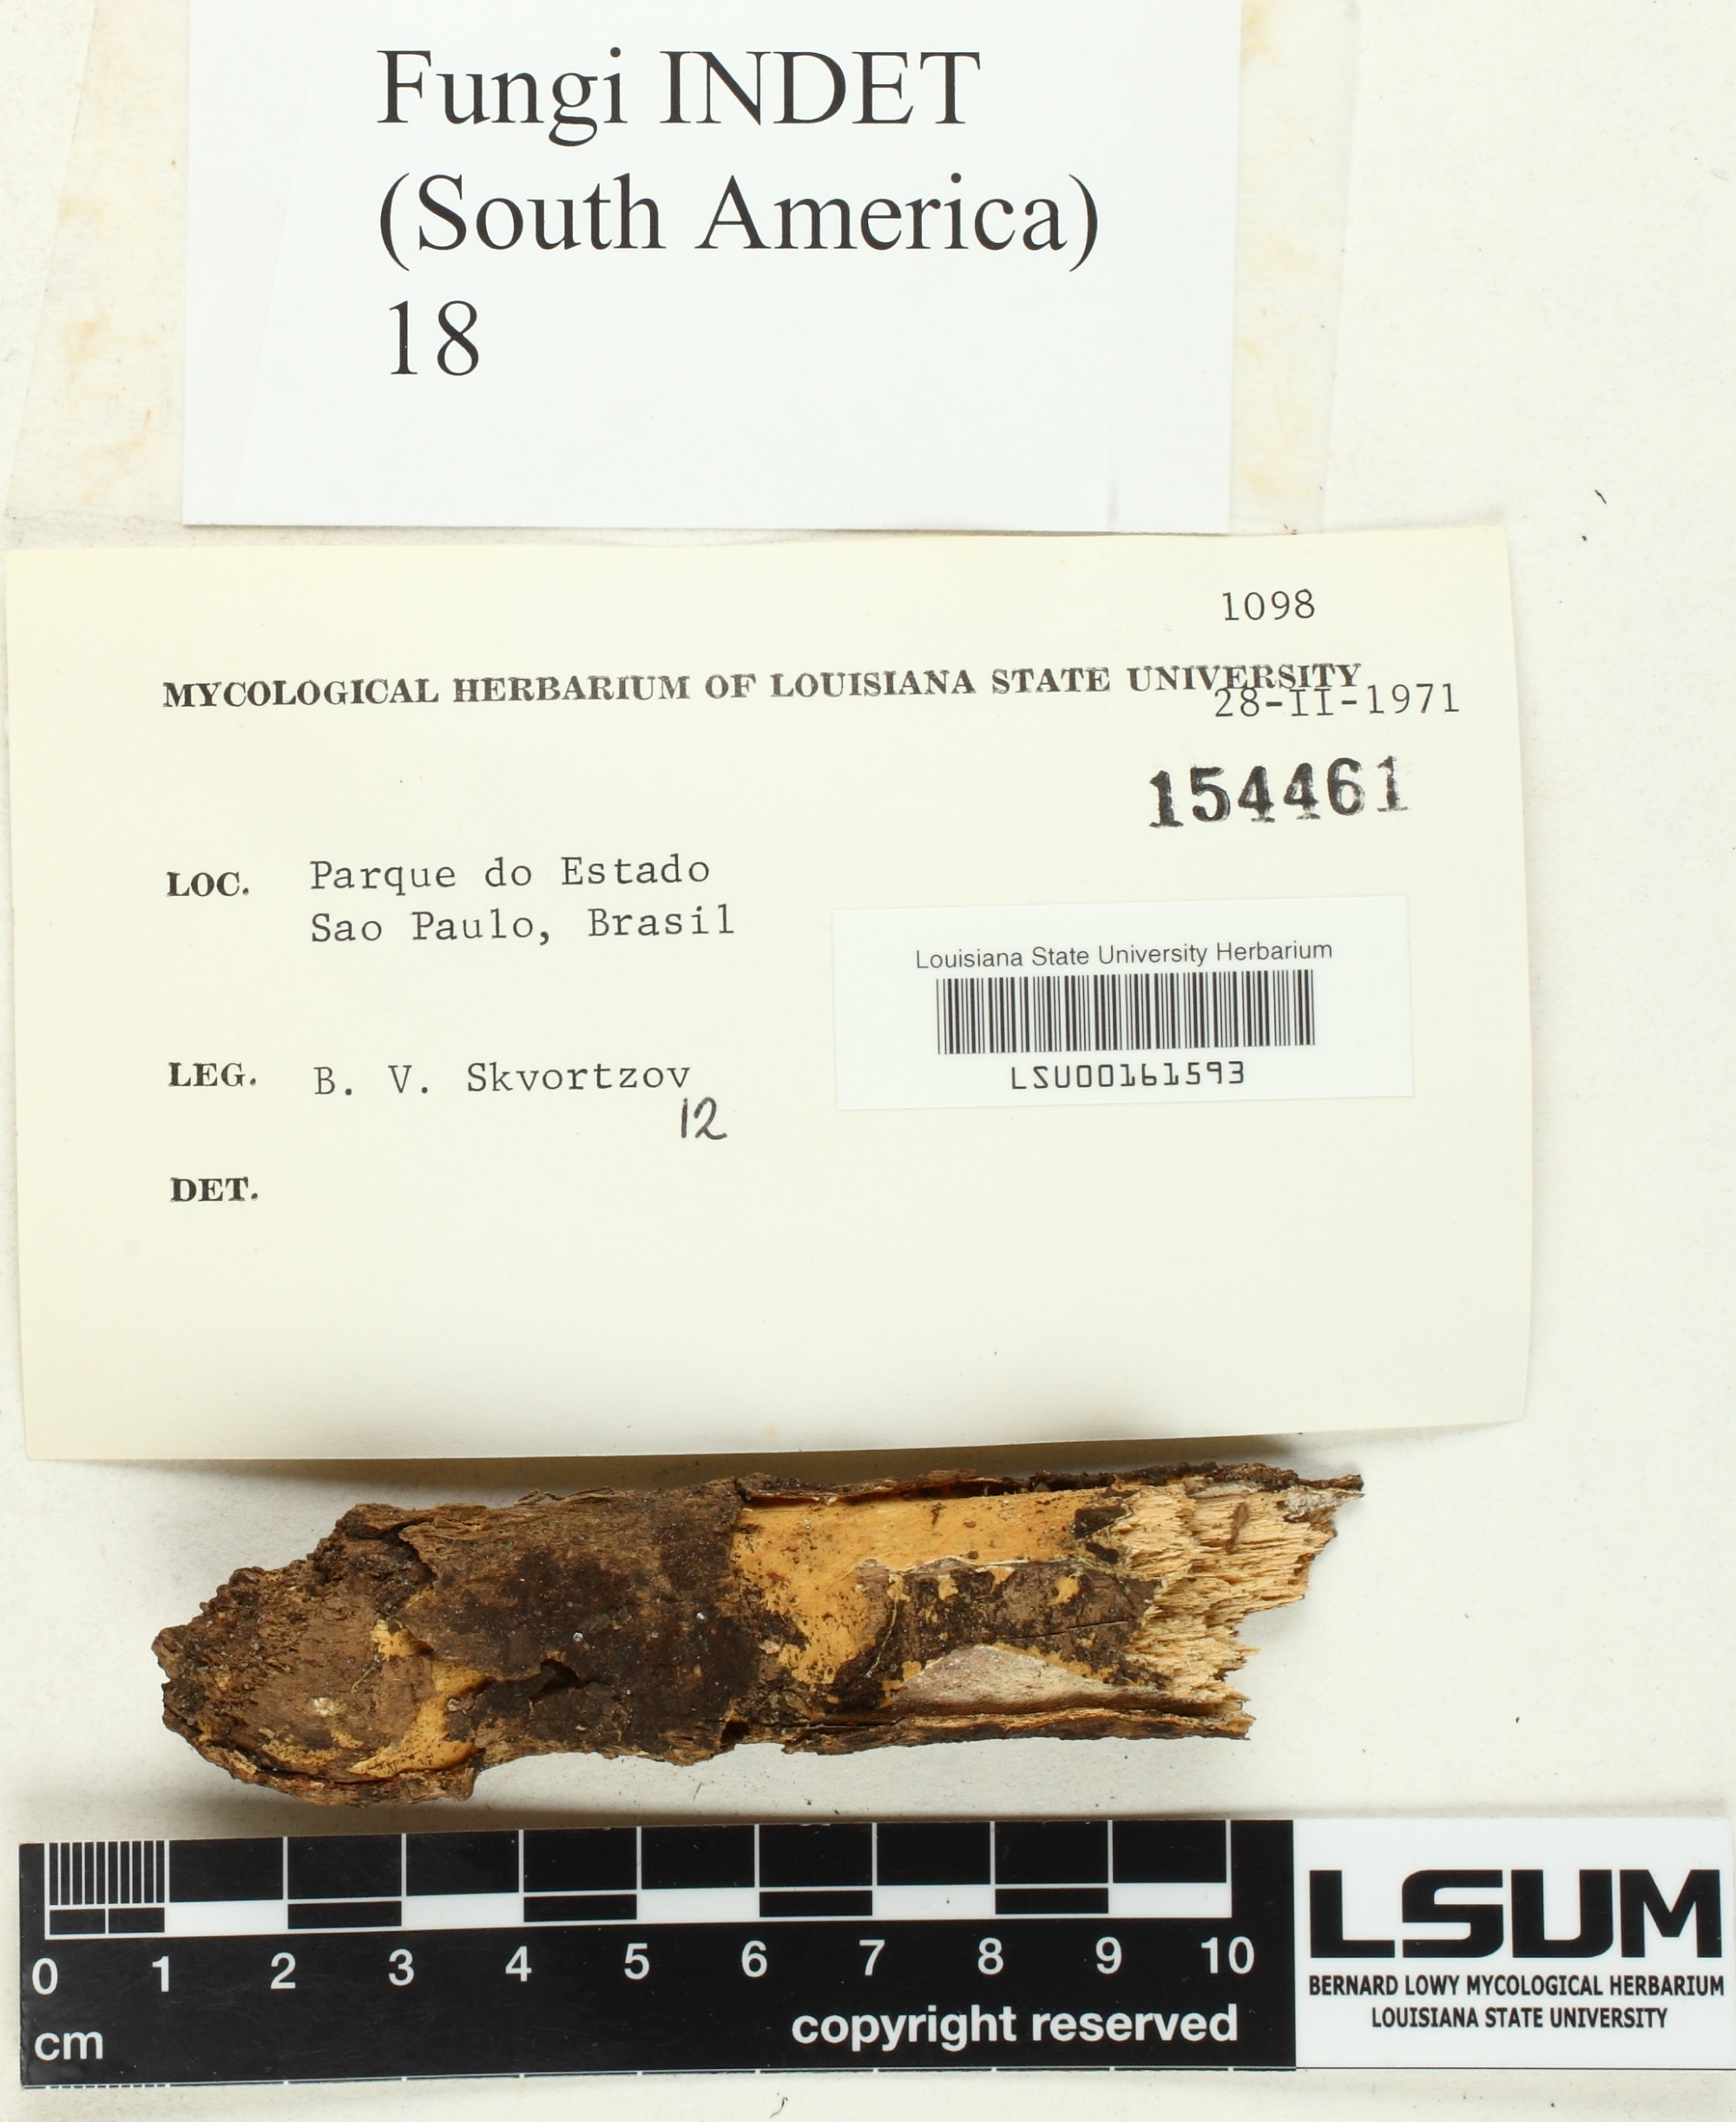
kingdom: Fungi
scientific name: Fungi
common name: Fungi
